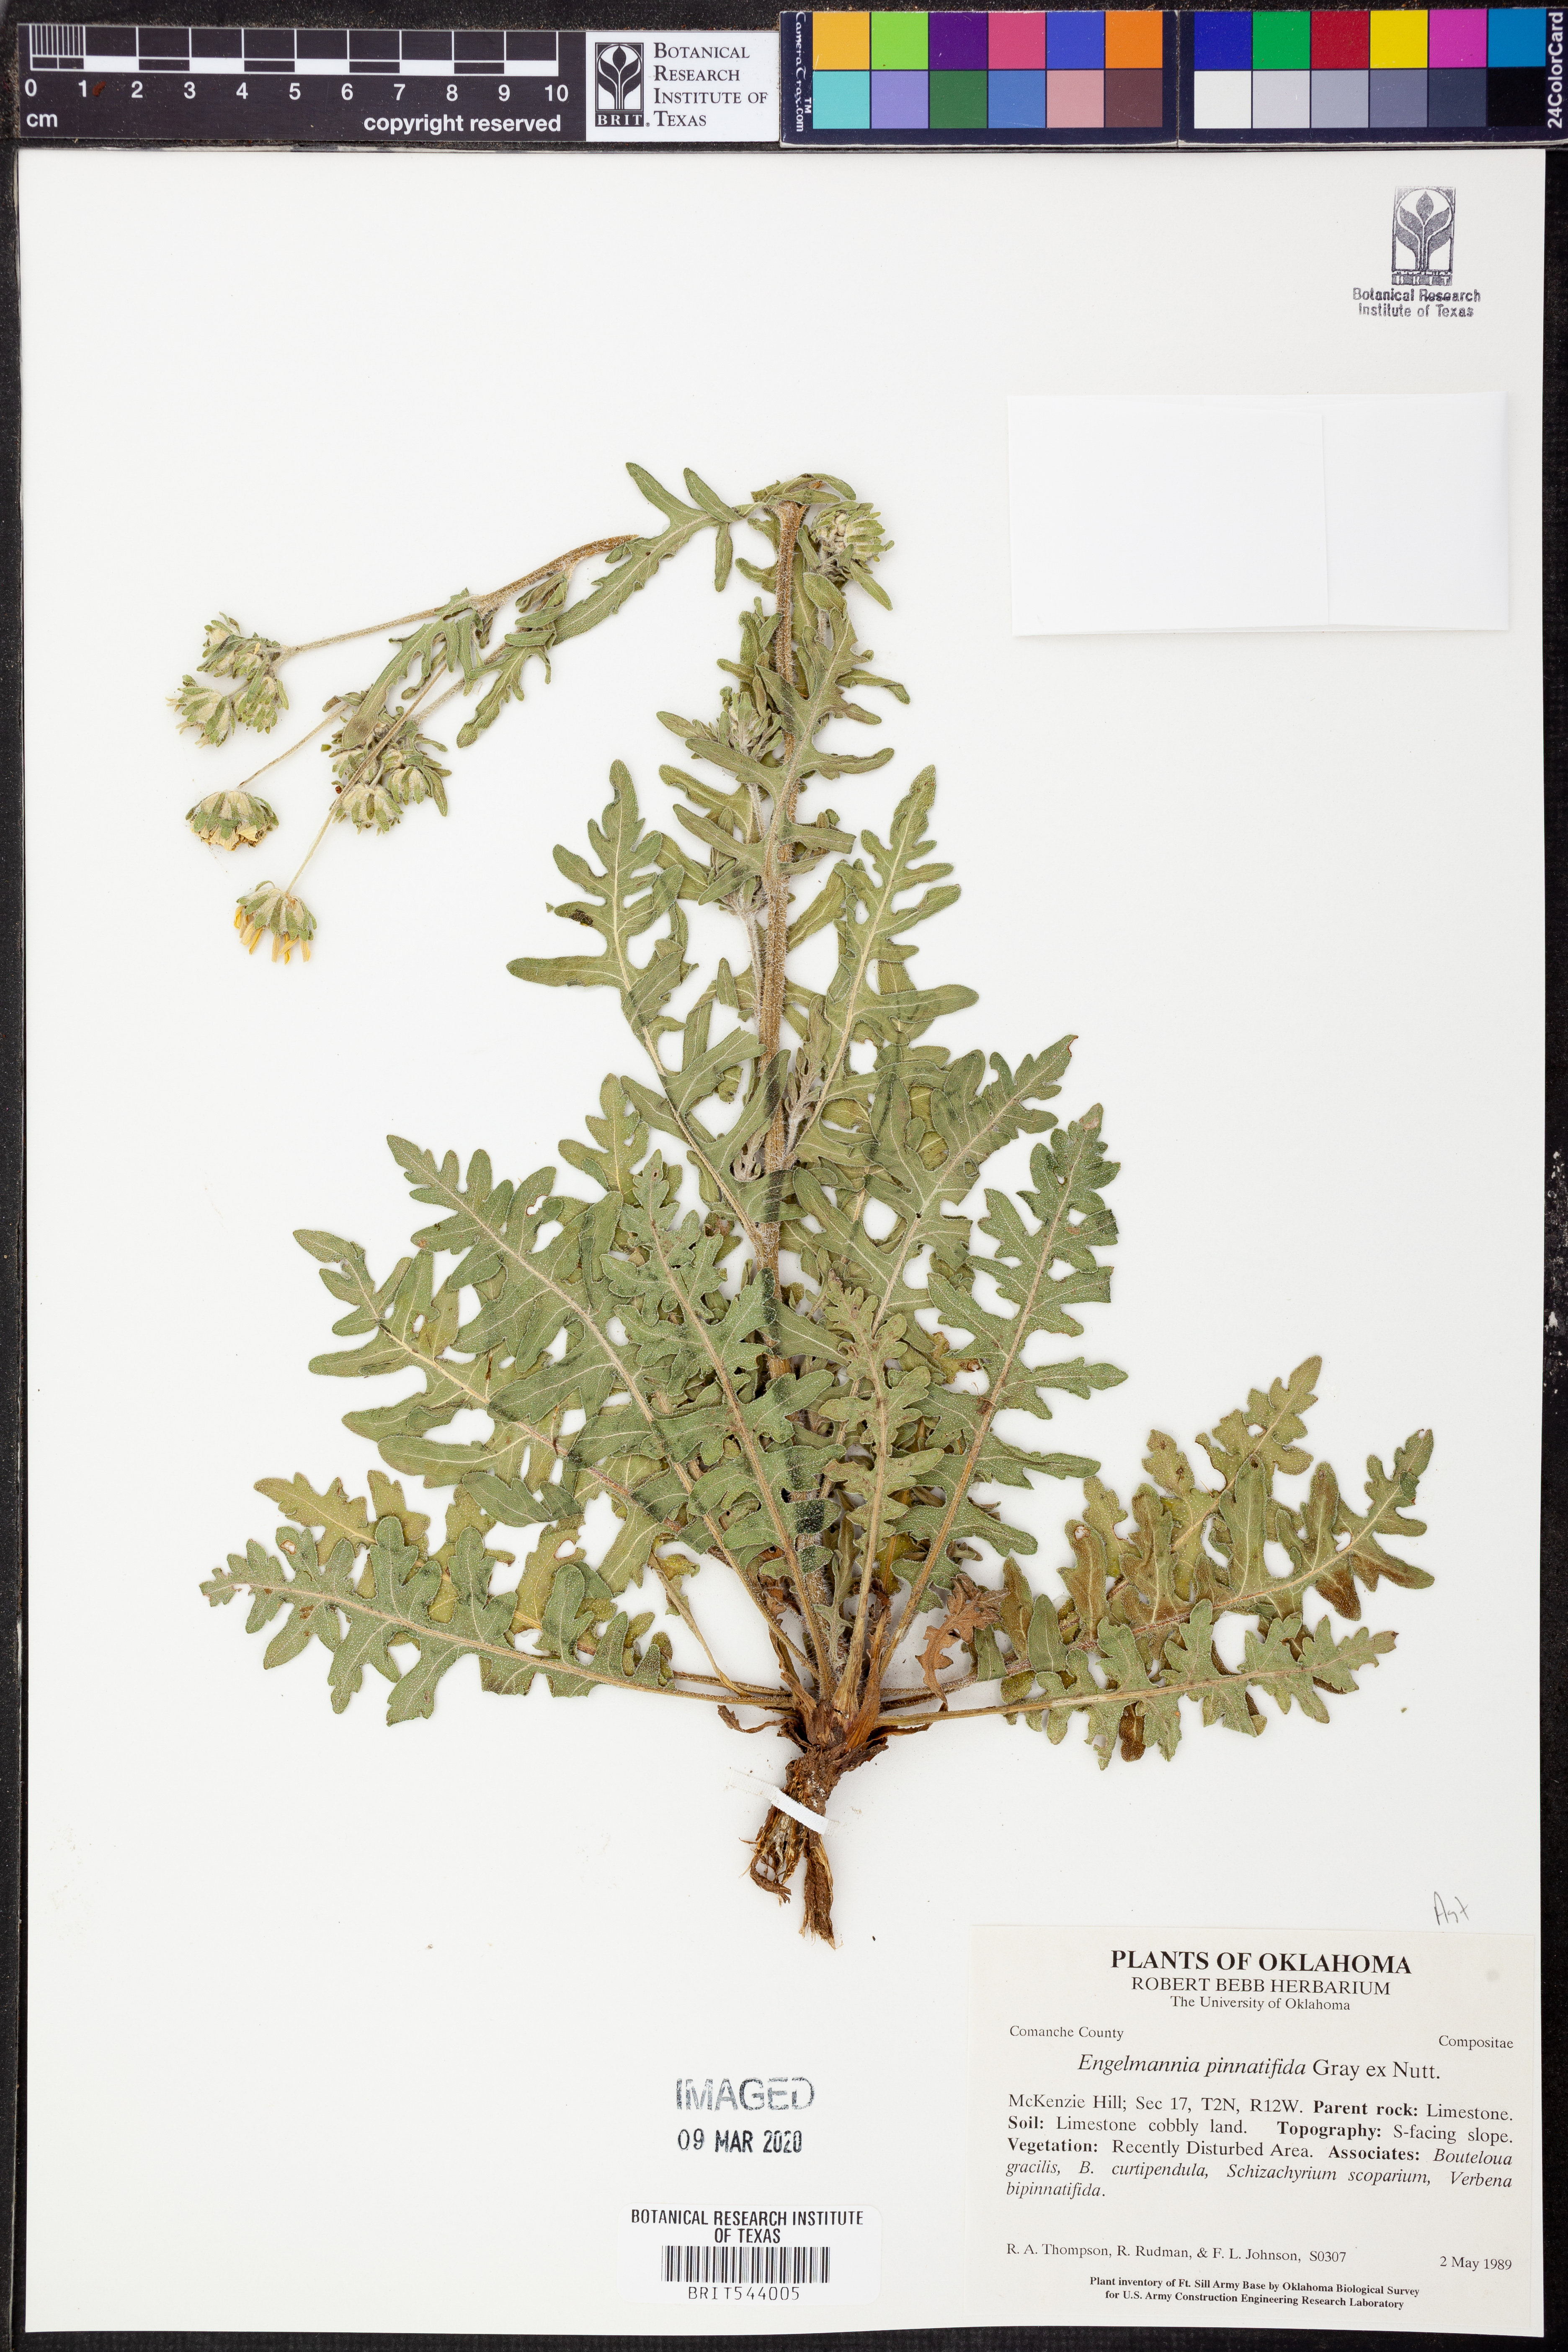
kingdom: Plantae
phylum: Tracheophyta
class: Magnoliopsida
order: Asterales
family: Asteraceae
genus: Engelmannia
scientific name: Engelmannia peristenia
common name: Engelmann's daisy
